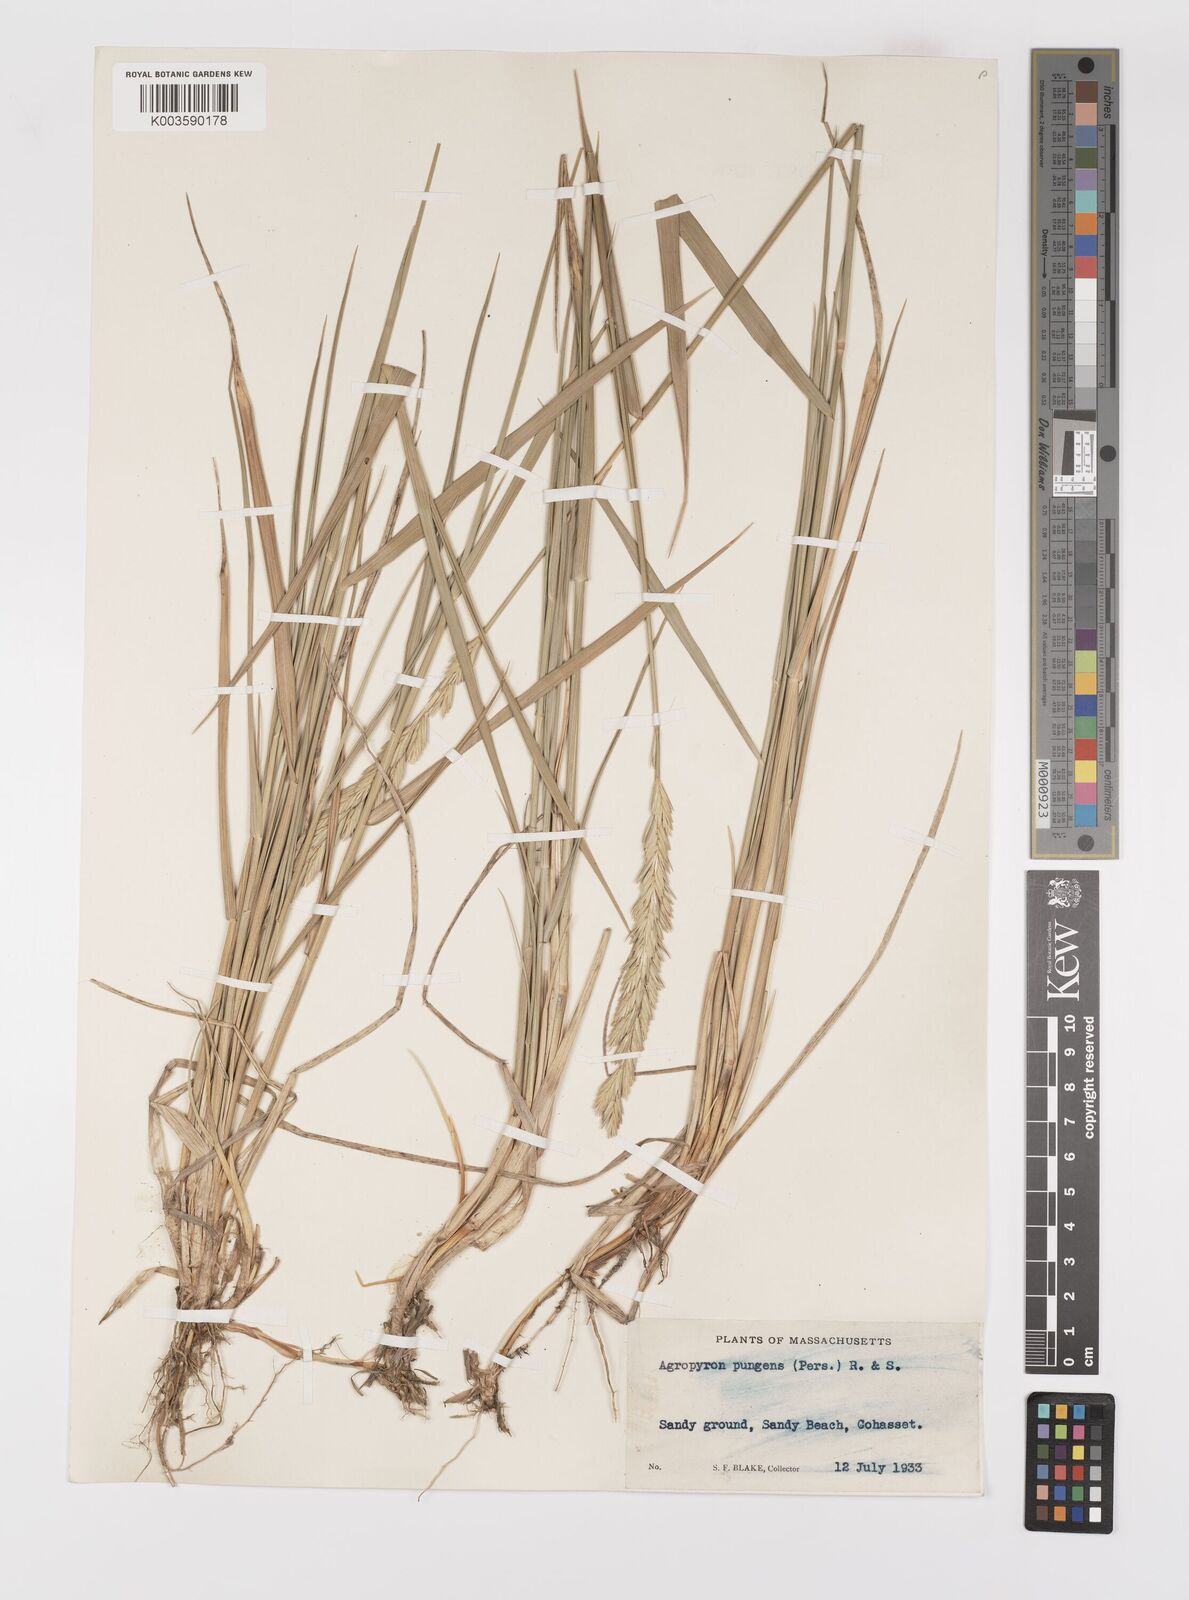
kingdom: Plantae
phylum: Tracheophyta
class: Liliopsida
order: Poales
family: Poaceae
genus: Elymus
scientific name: Elymus pungens
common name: Sea couch
